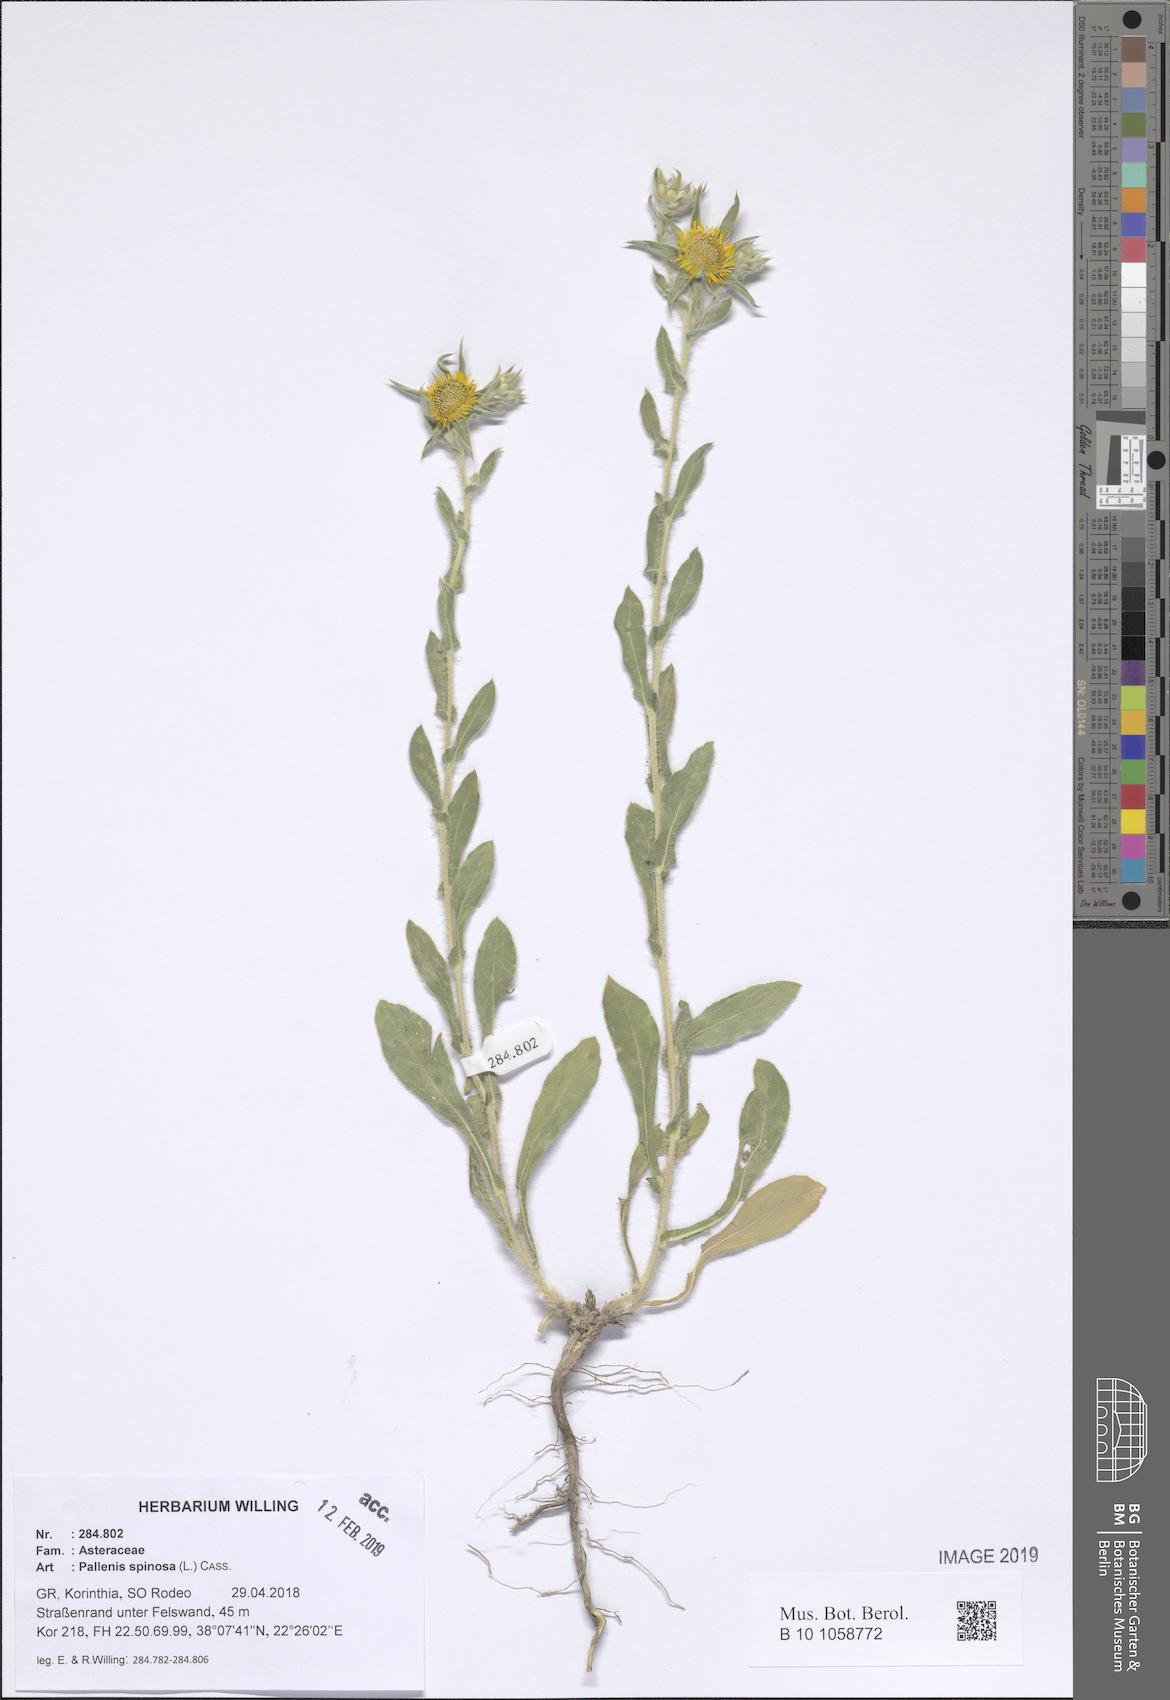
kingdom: Plantae
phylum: Tracheophyta
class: Magnoliopsida
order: Asterales
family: Asteraceae
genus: Pallenis
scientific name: Pallenis spinosa
